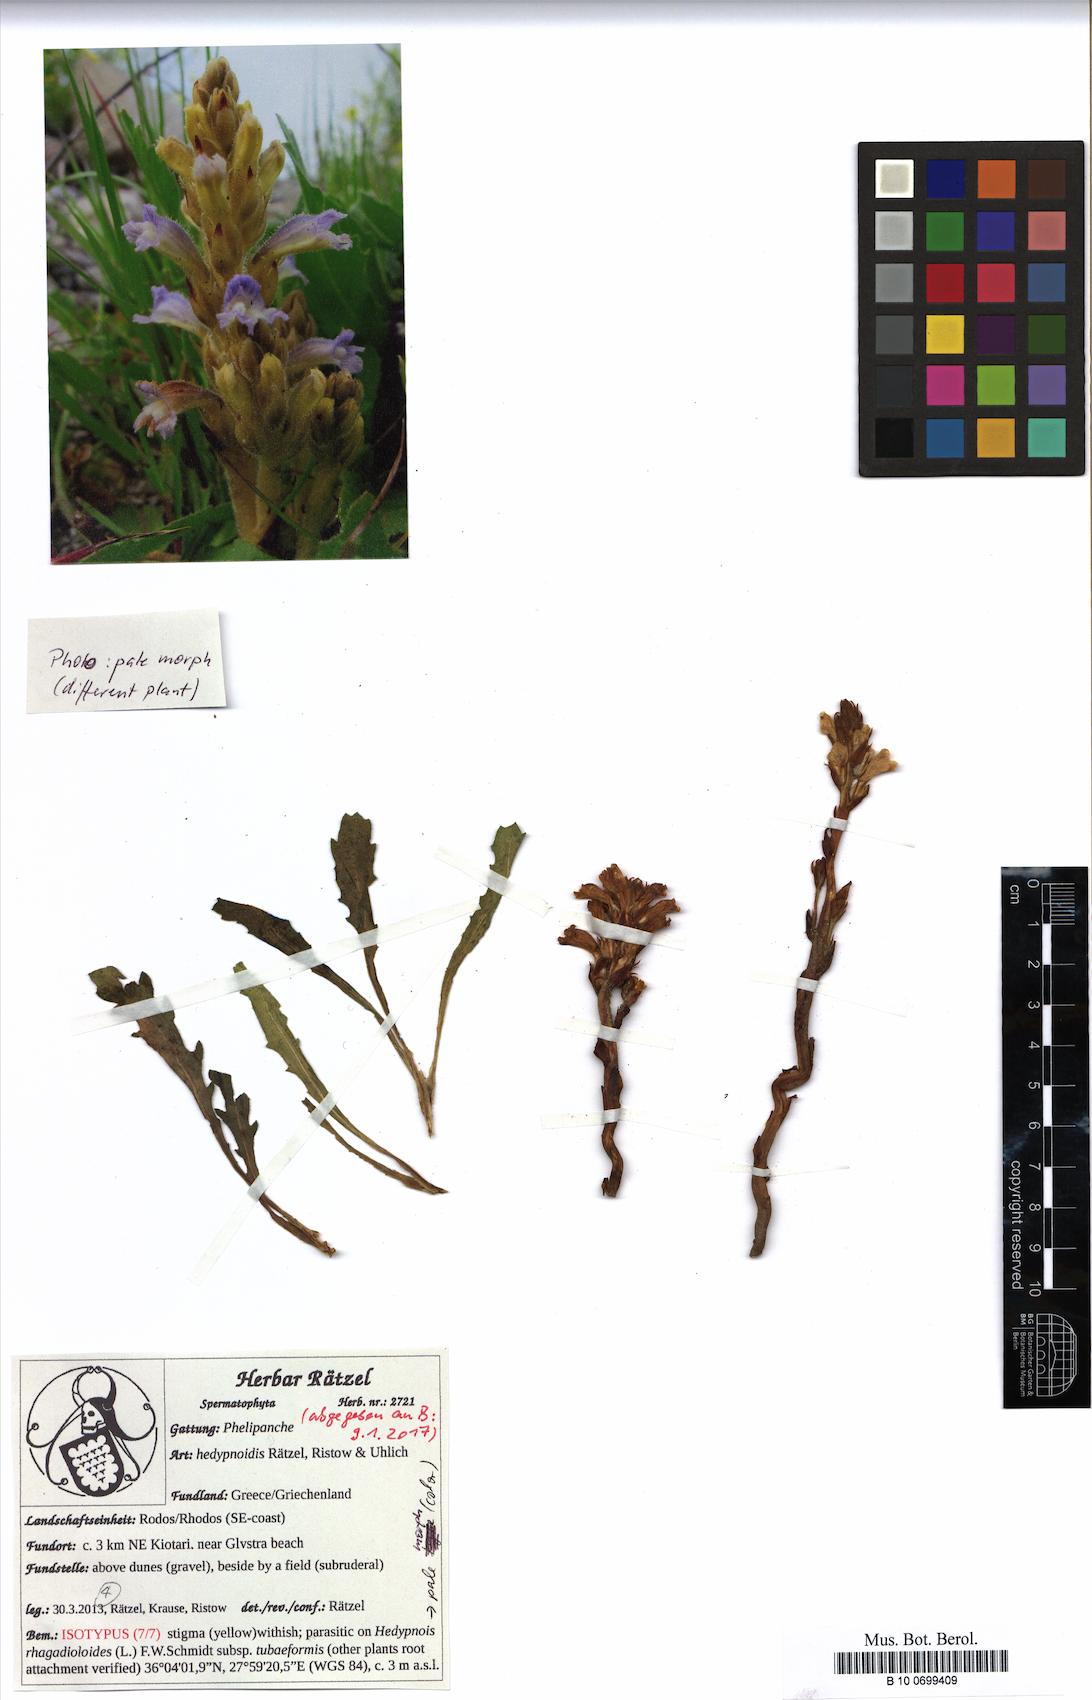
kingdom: Plantae
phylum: Tracheophyta
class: Magnoliopsida
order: Lamiales
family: Orobanchaceae
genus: Phelipanche
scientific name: Phelipanche hedypnoidis
